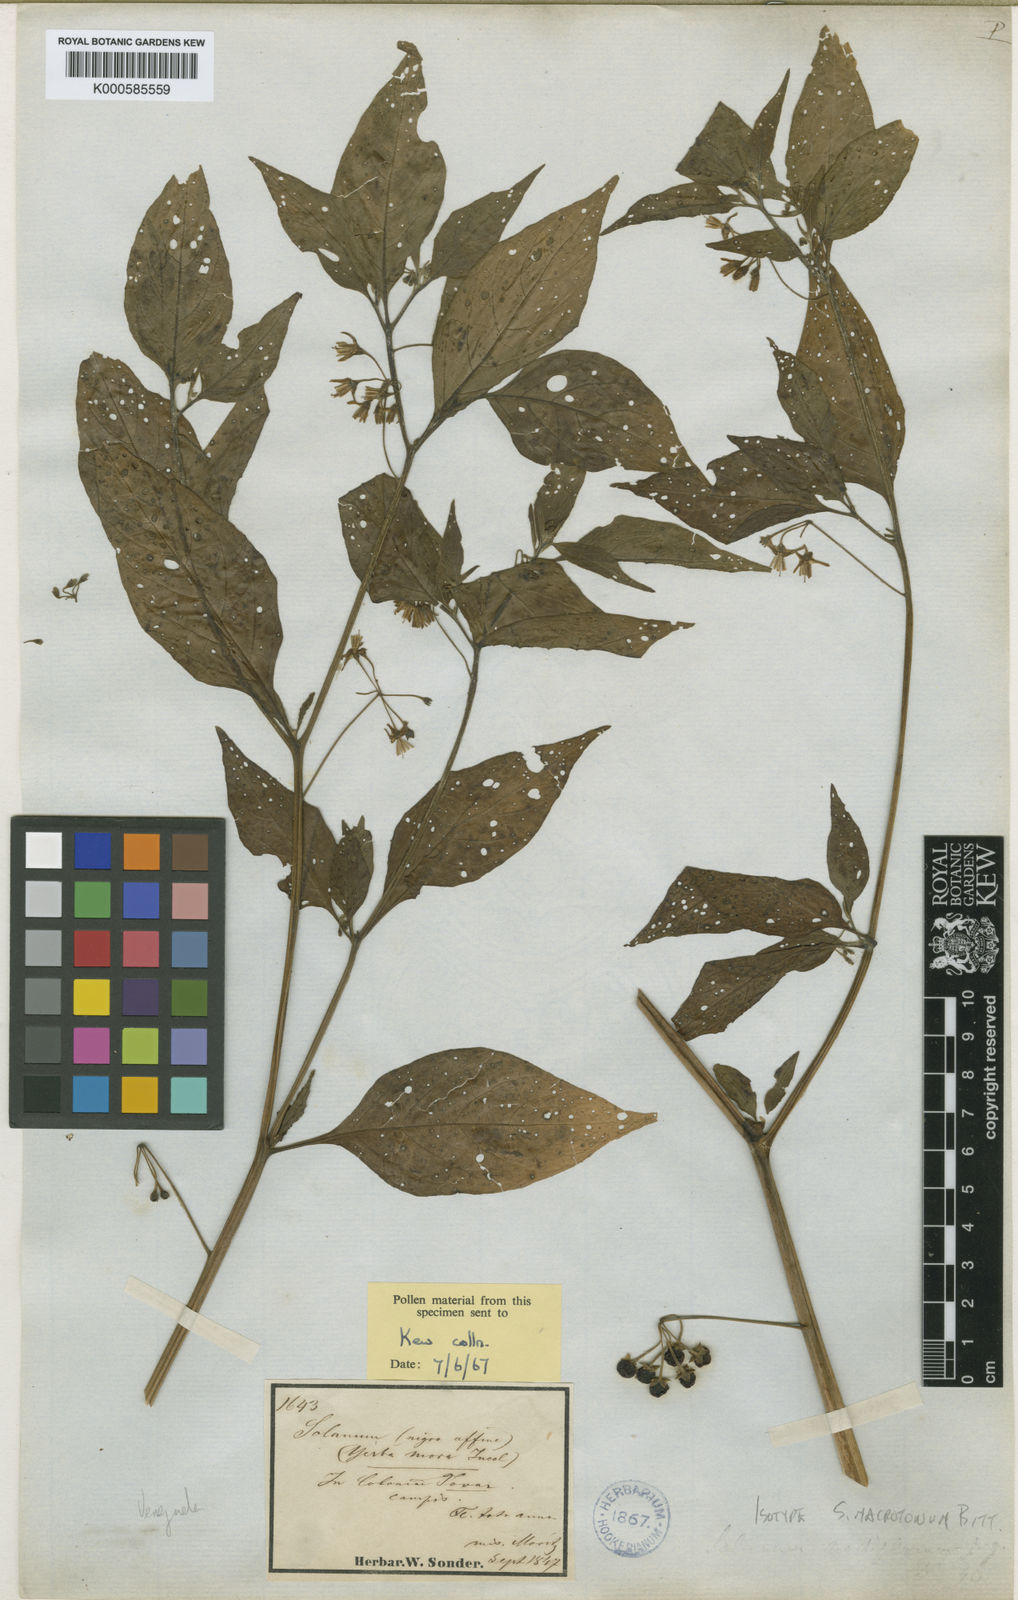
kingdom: Plantae
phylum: Tracheophyta
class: Magnoliopsida
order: Solanales
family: Solanaceae
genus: Solanum
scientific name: Solanum macrotonum
